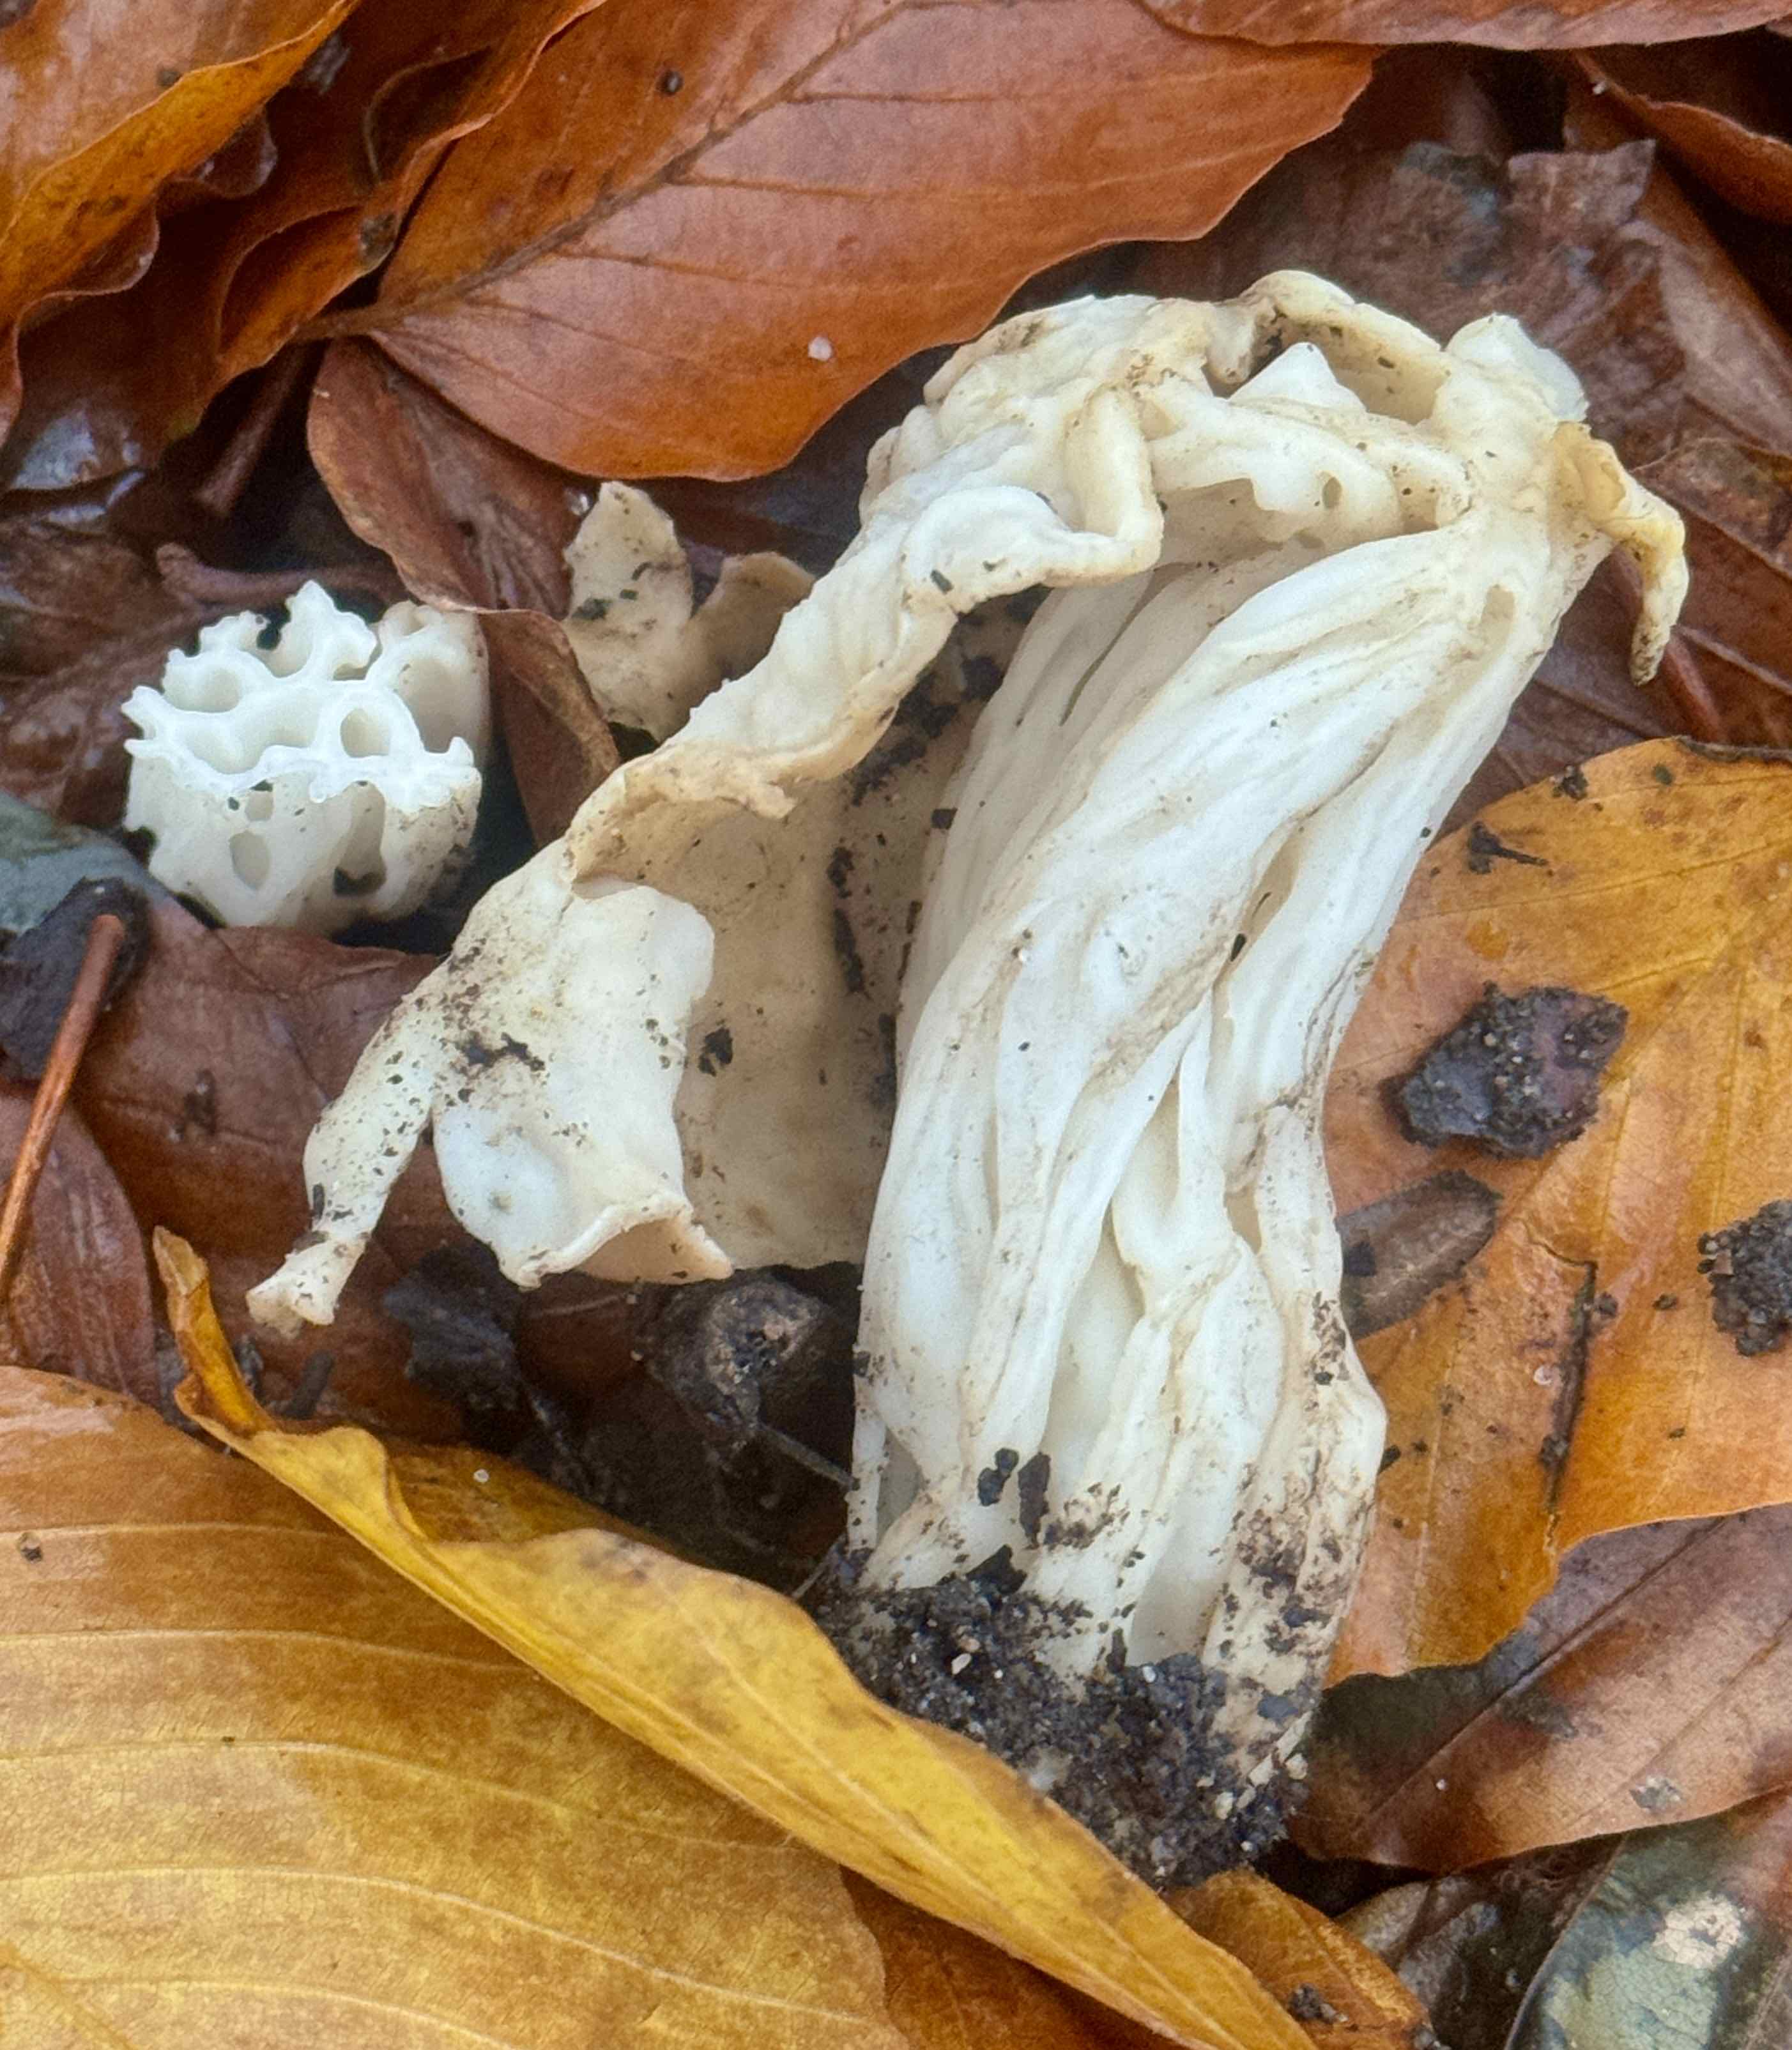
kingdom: Fungi
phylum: Ascomycota
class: Pezizomycetes
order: Pezizales
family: Helvellaceae
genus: Helvella
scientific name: Helvella crispa
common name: kruset foldhat
